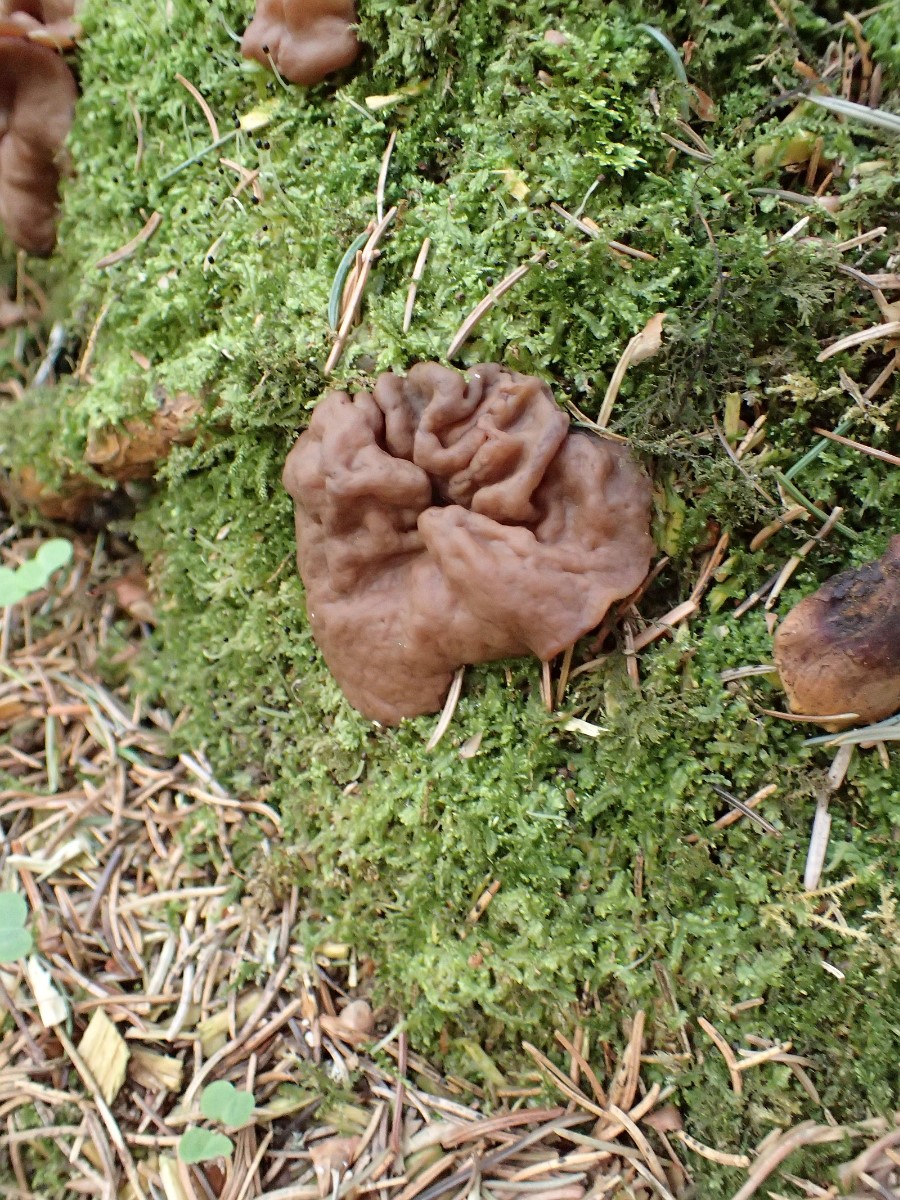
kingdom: Fungi
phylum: Ascomycota
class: Pezizomycetes
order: Pezizales
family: Discinaceae
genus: Discina
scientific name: Discina ancilis
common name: udbredt stenmorkel
